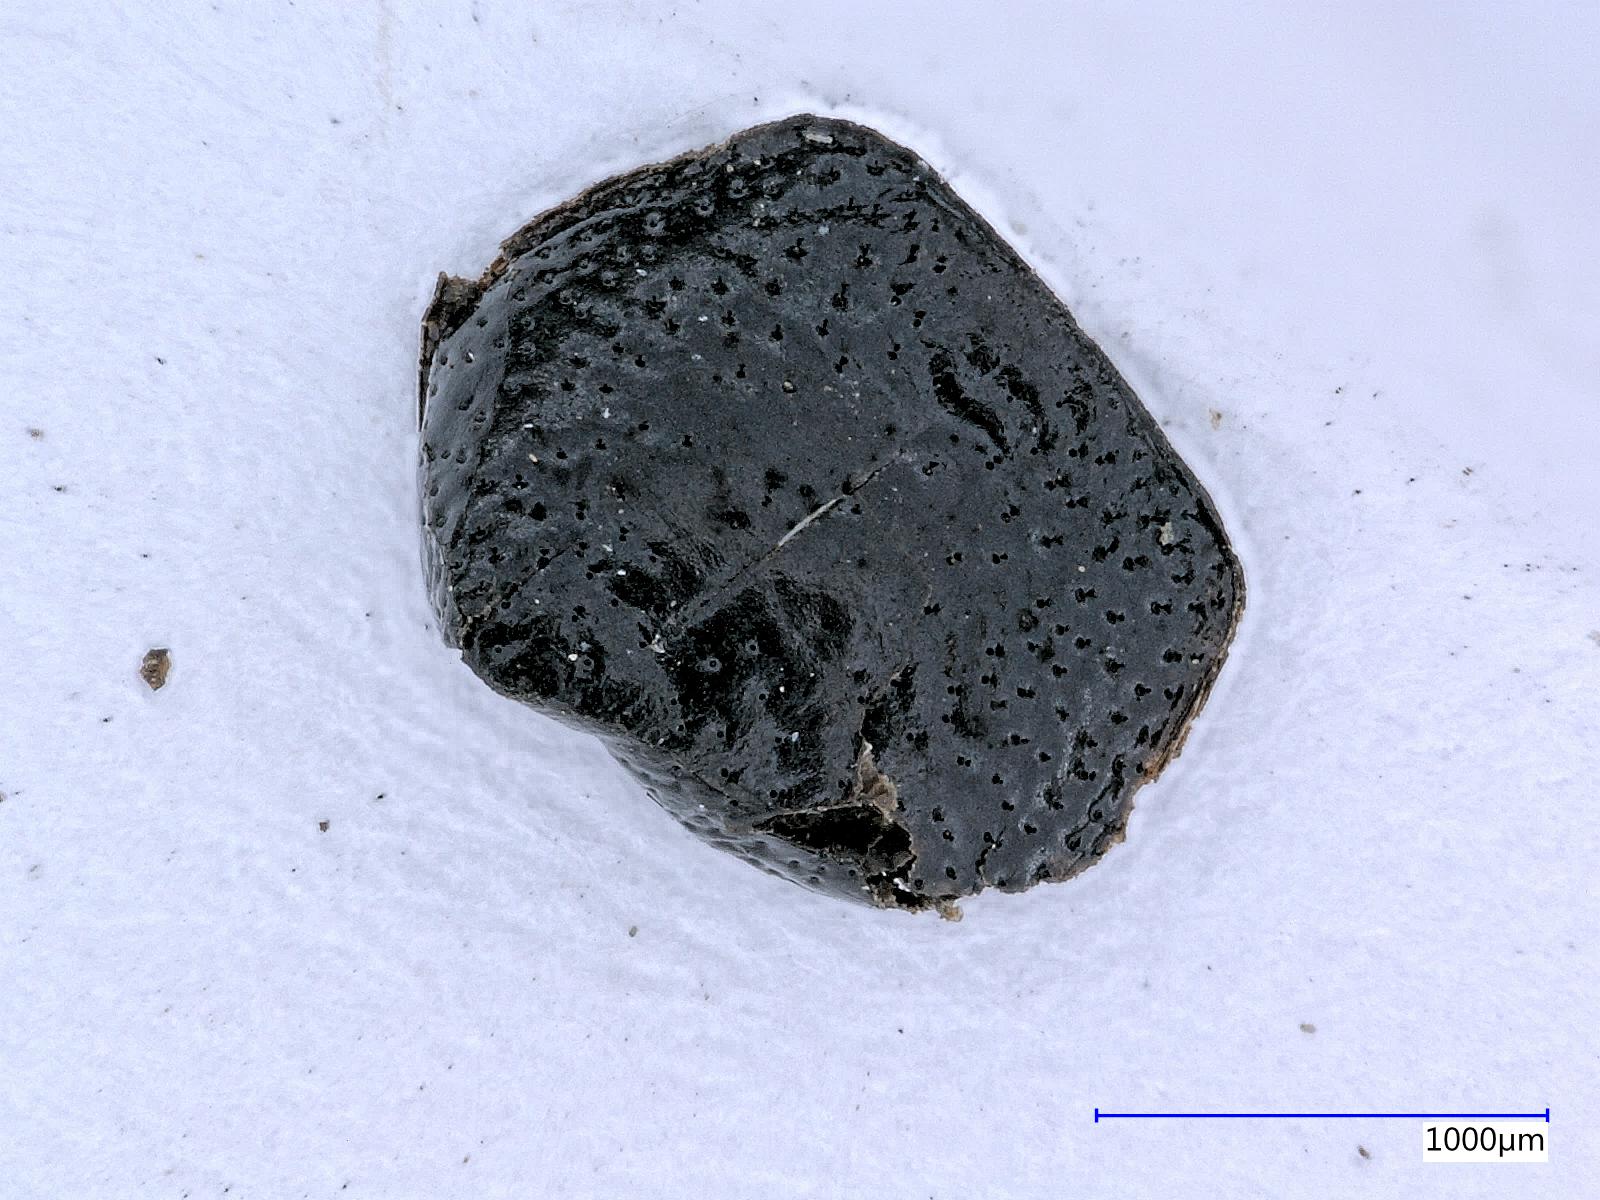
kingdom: Animalia
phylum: Arthropoda
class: Insecta
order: Coleoptera
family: Carabidae
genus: Dicheirus
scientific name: Dicheirus
